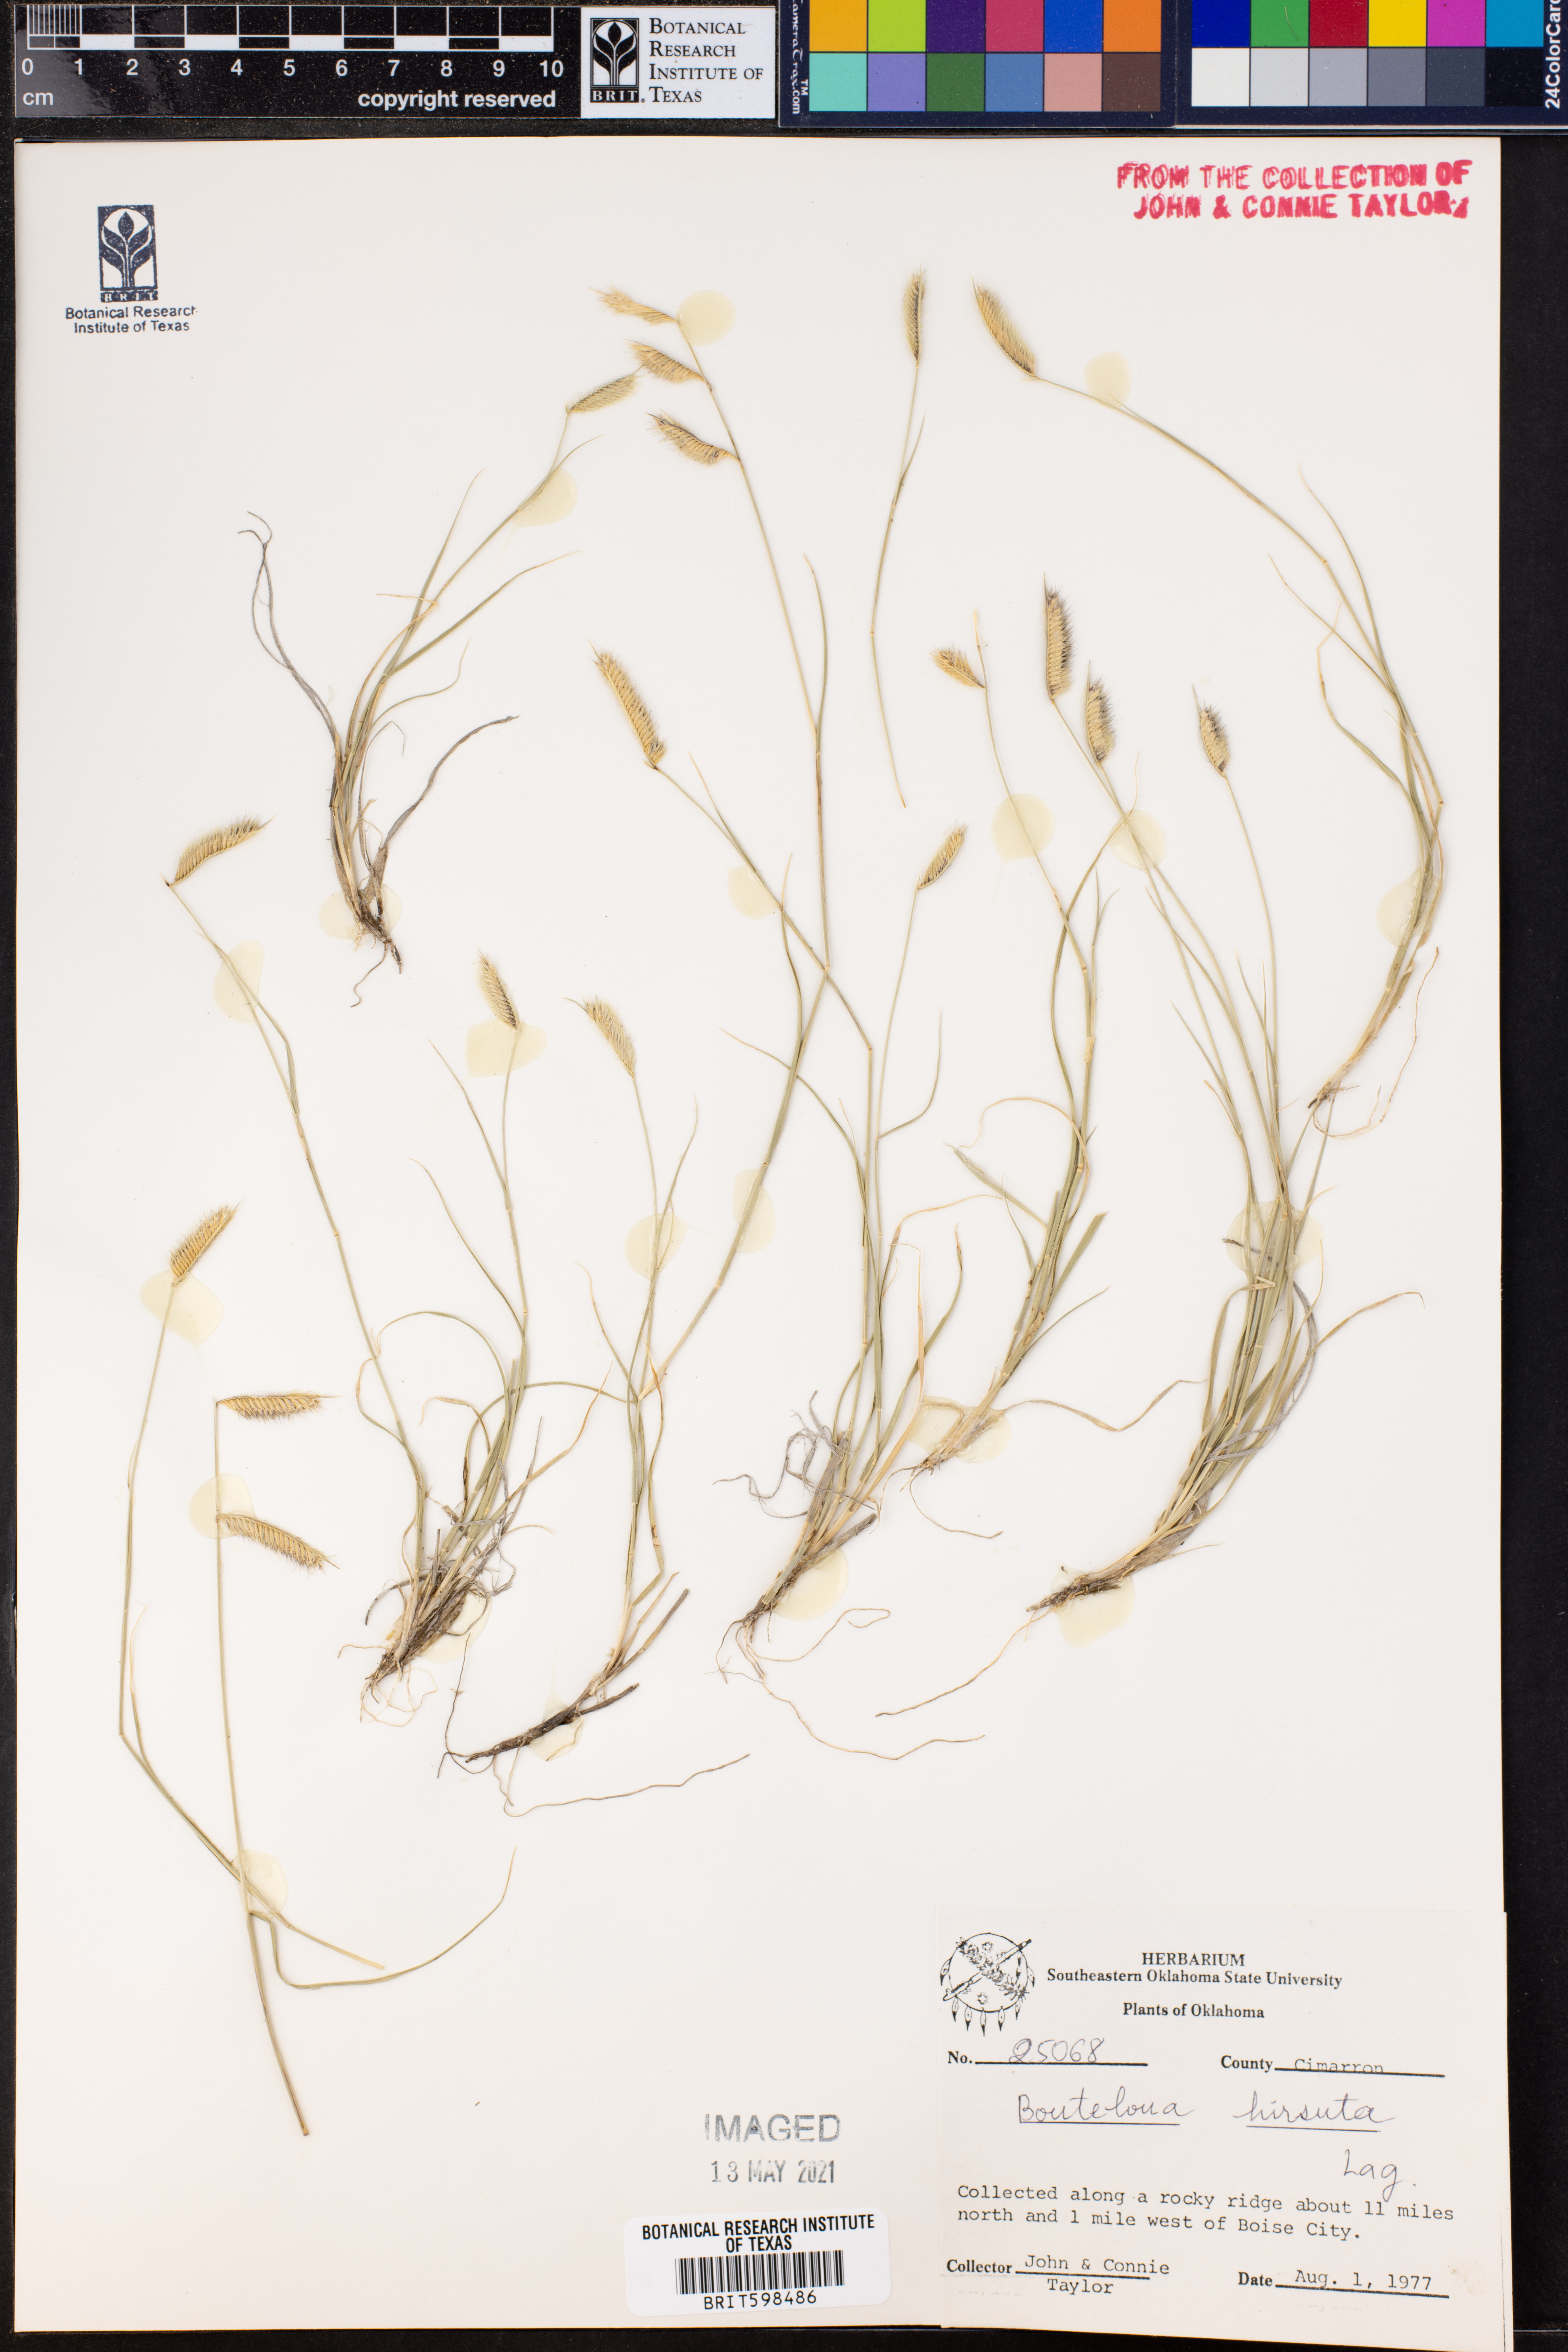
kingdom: Plantae
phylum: Tracheophyta
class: Liliopsida
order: Poales
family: Poaceae
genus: Bouteloua
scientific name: Bouteloua hirsuta
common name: Hairy grama
